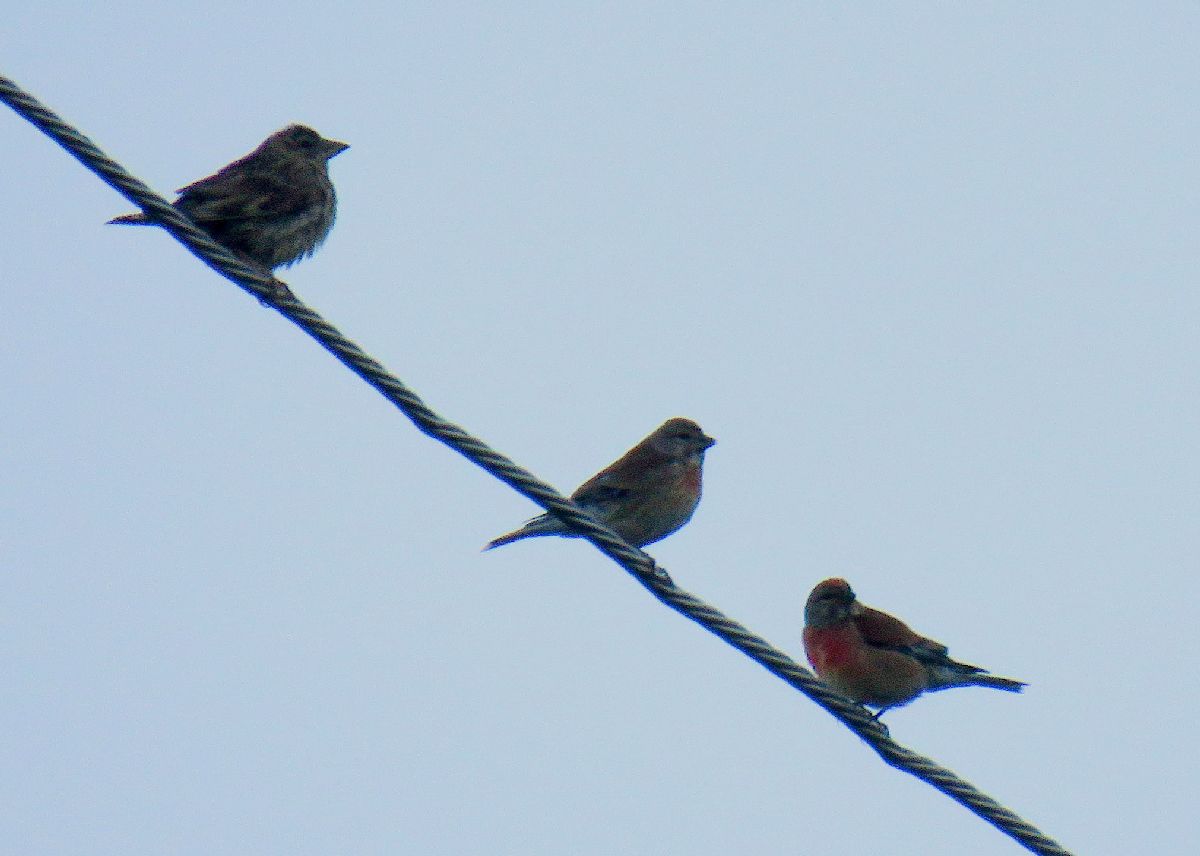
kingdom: Animalia
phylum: Chordata
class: Aves
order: Passeriformes
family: Fringillidae
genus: Linaria
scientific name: Linaria cannabina
